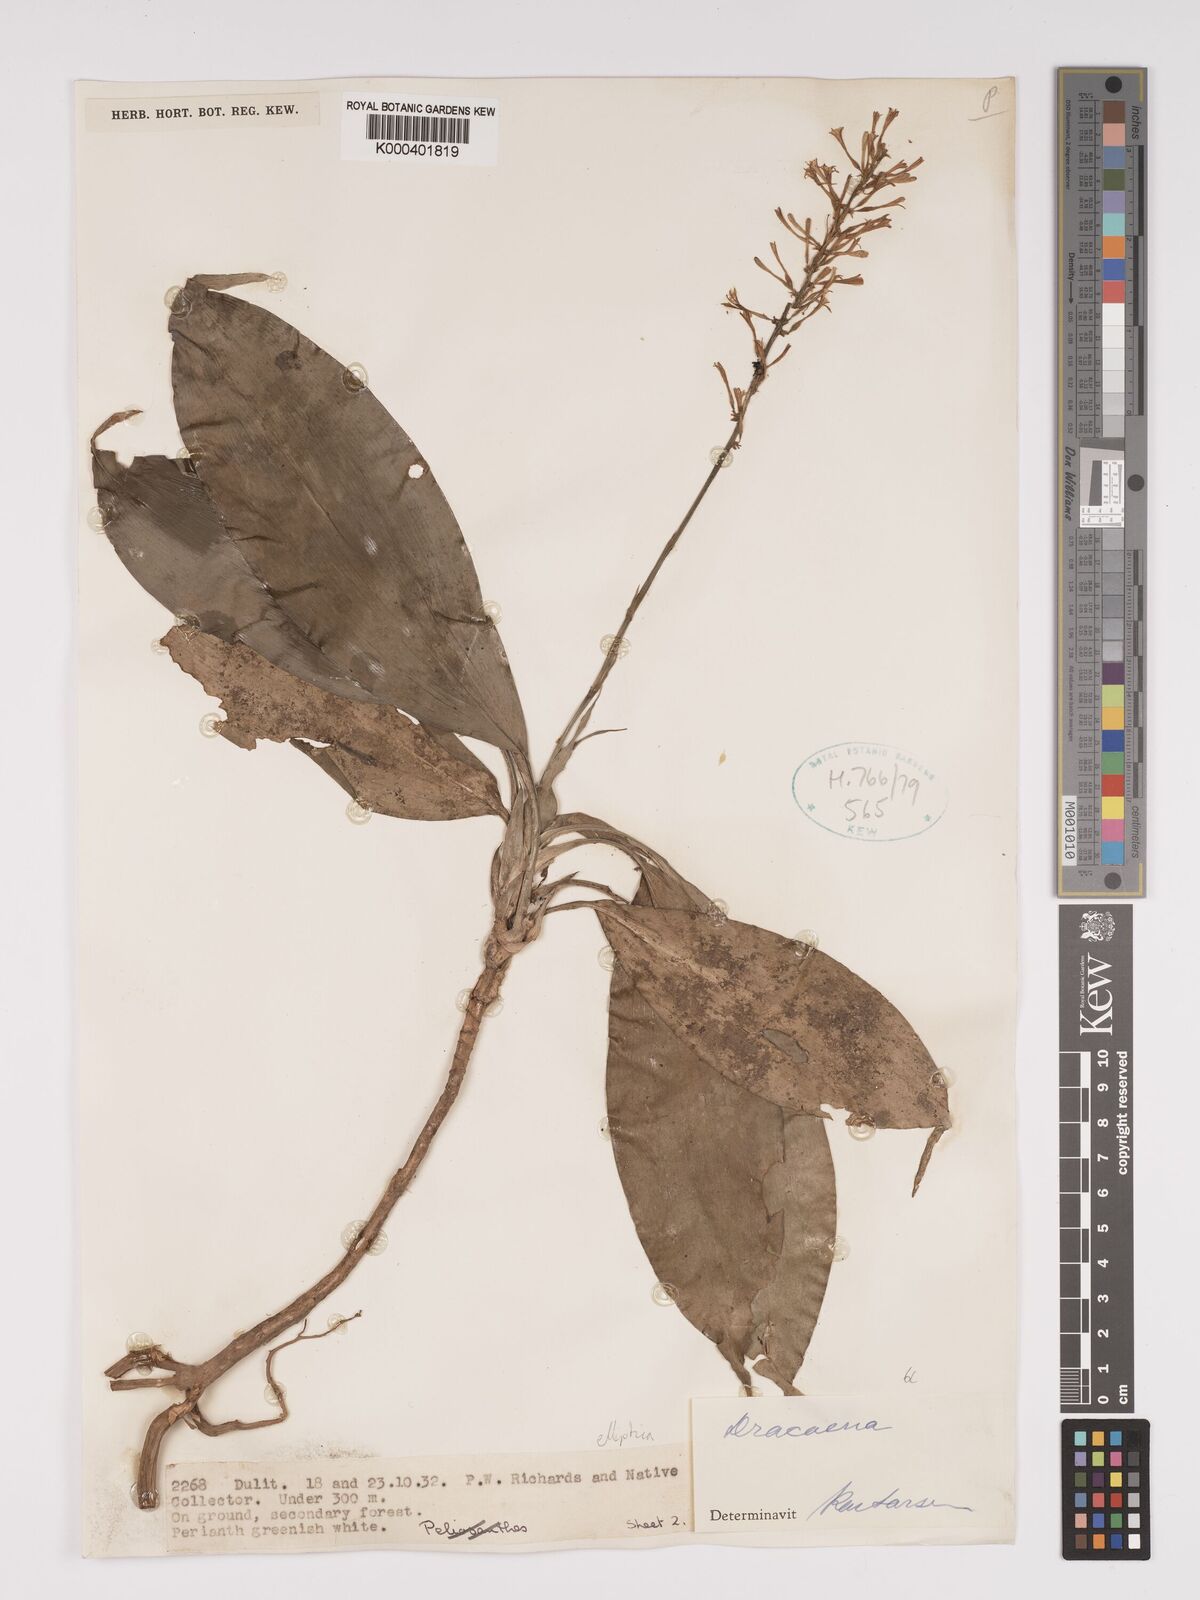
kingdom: Plantae
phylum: Tracheophyta
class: Liliopsida
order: Asparagales
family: Asparagaceae
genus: Dracaena
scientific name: Dracaena
